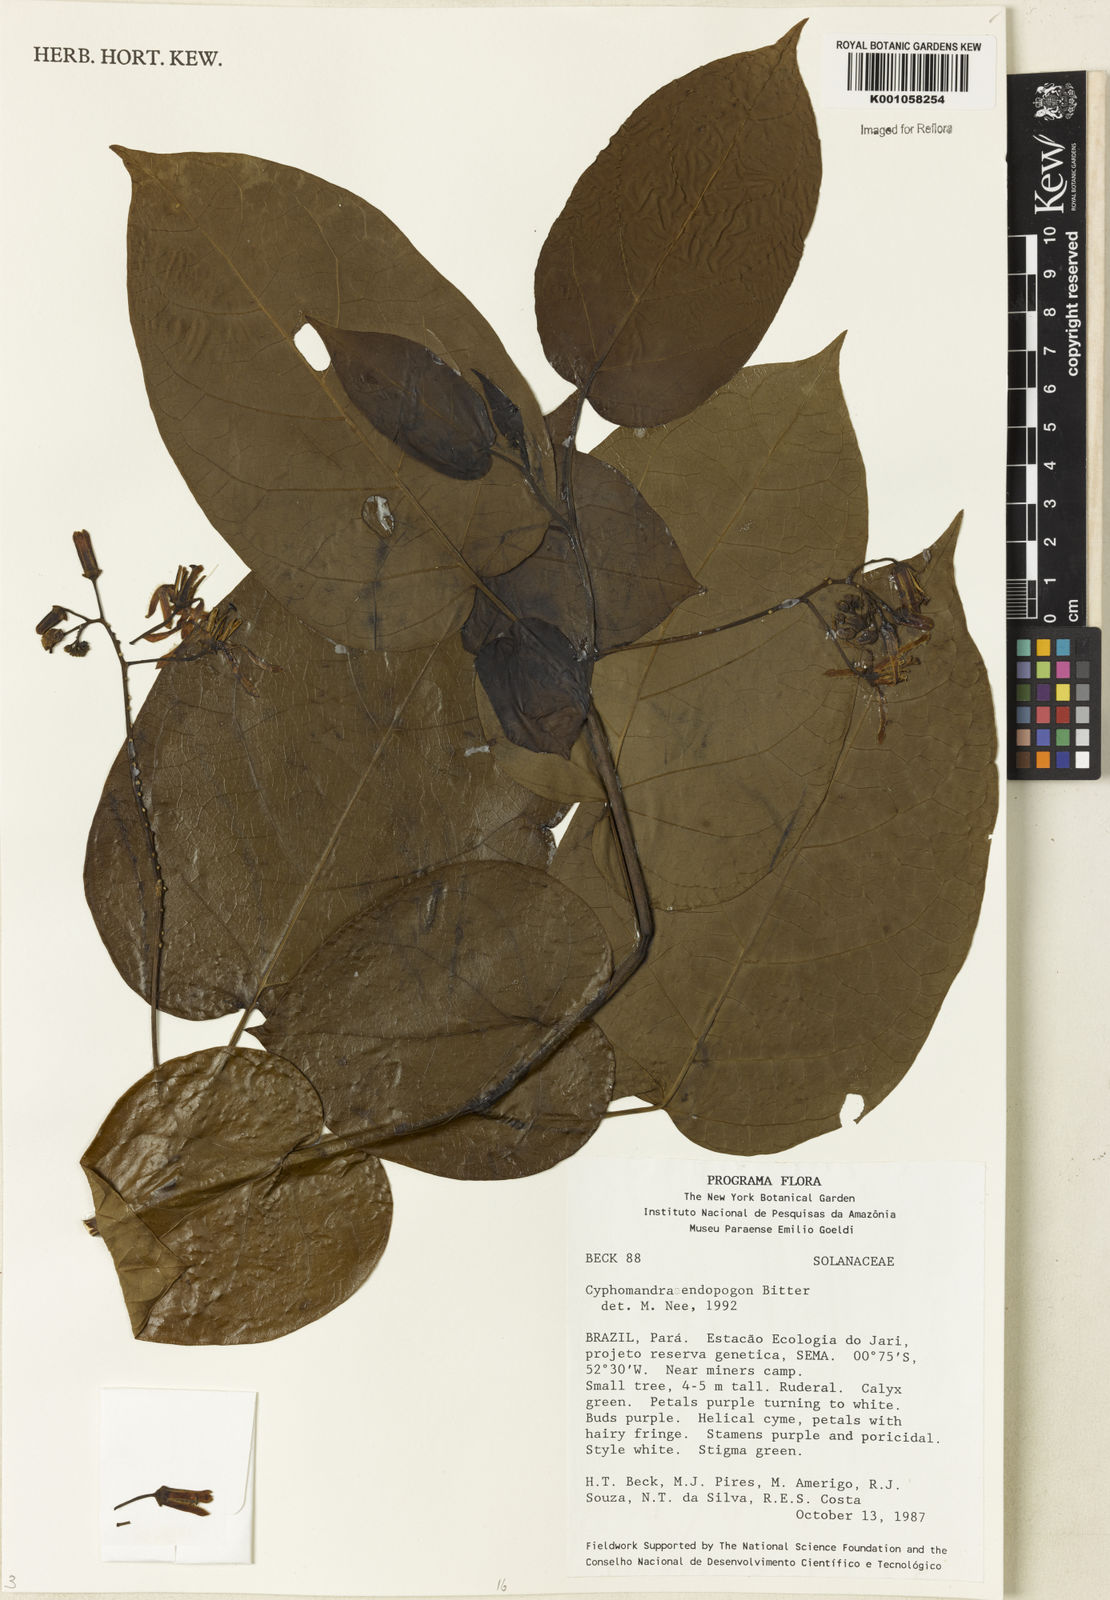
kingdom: Plantae
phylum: Tracheophyta
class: Magnoliopsida
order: Solanales
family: Solanaceae
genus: Solanum
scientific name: Solanum endopogon
